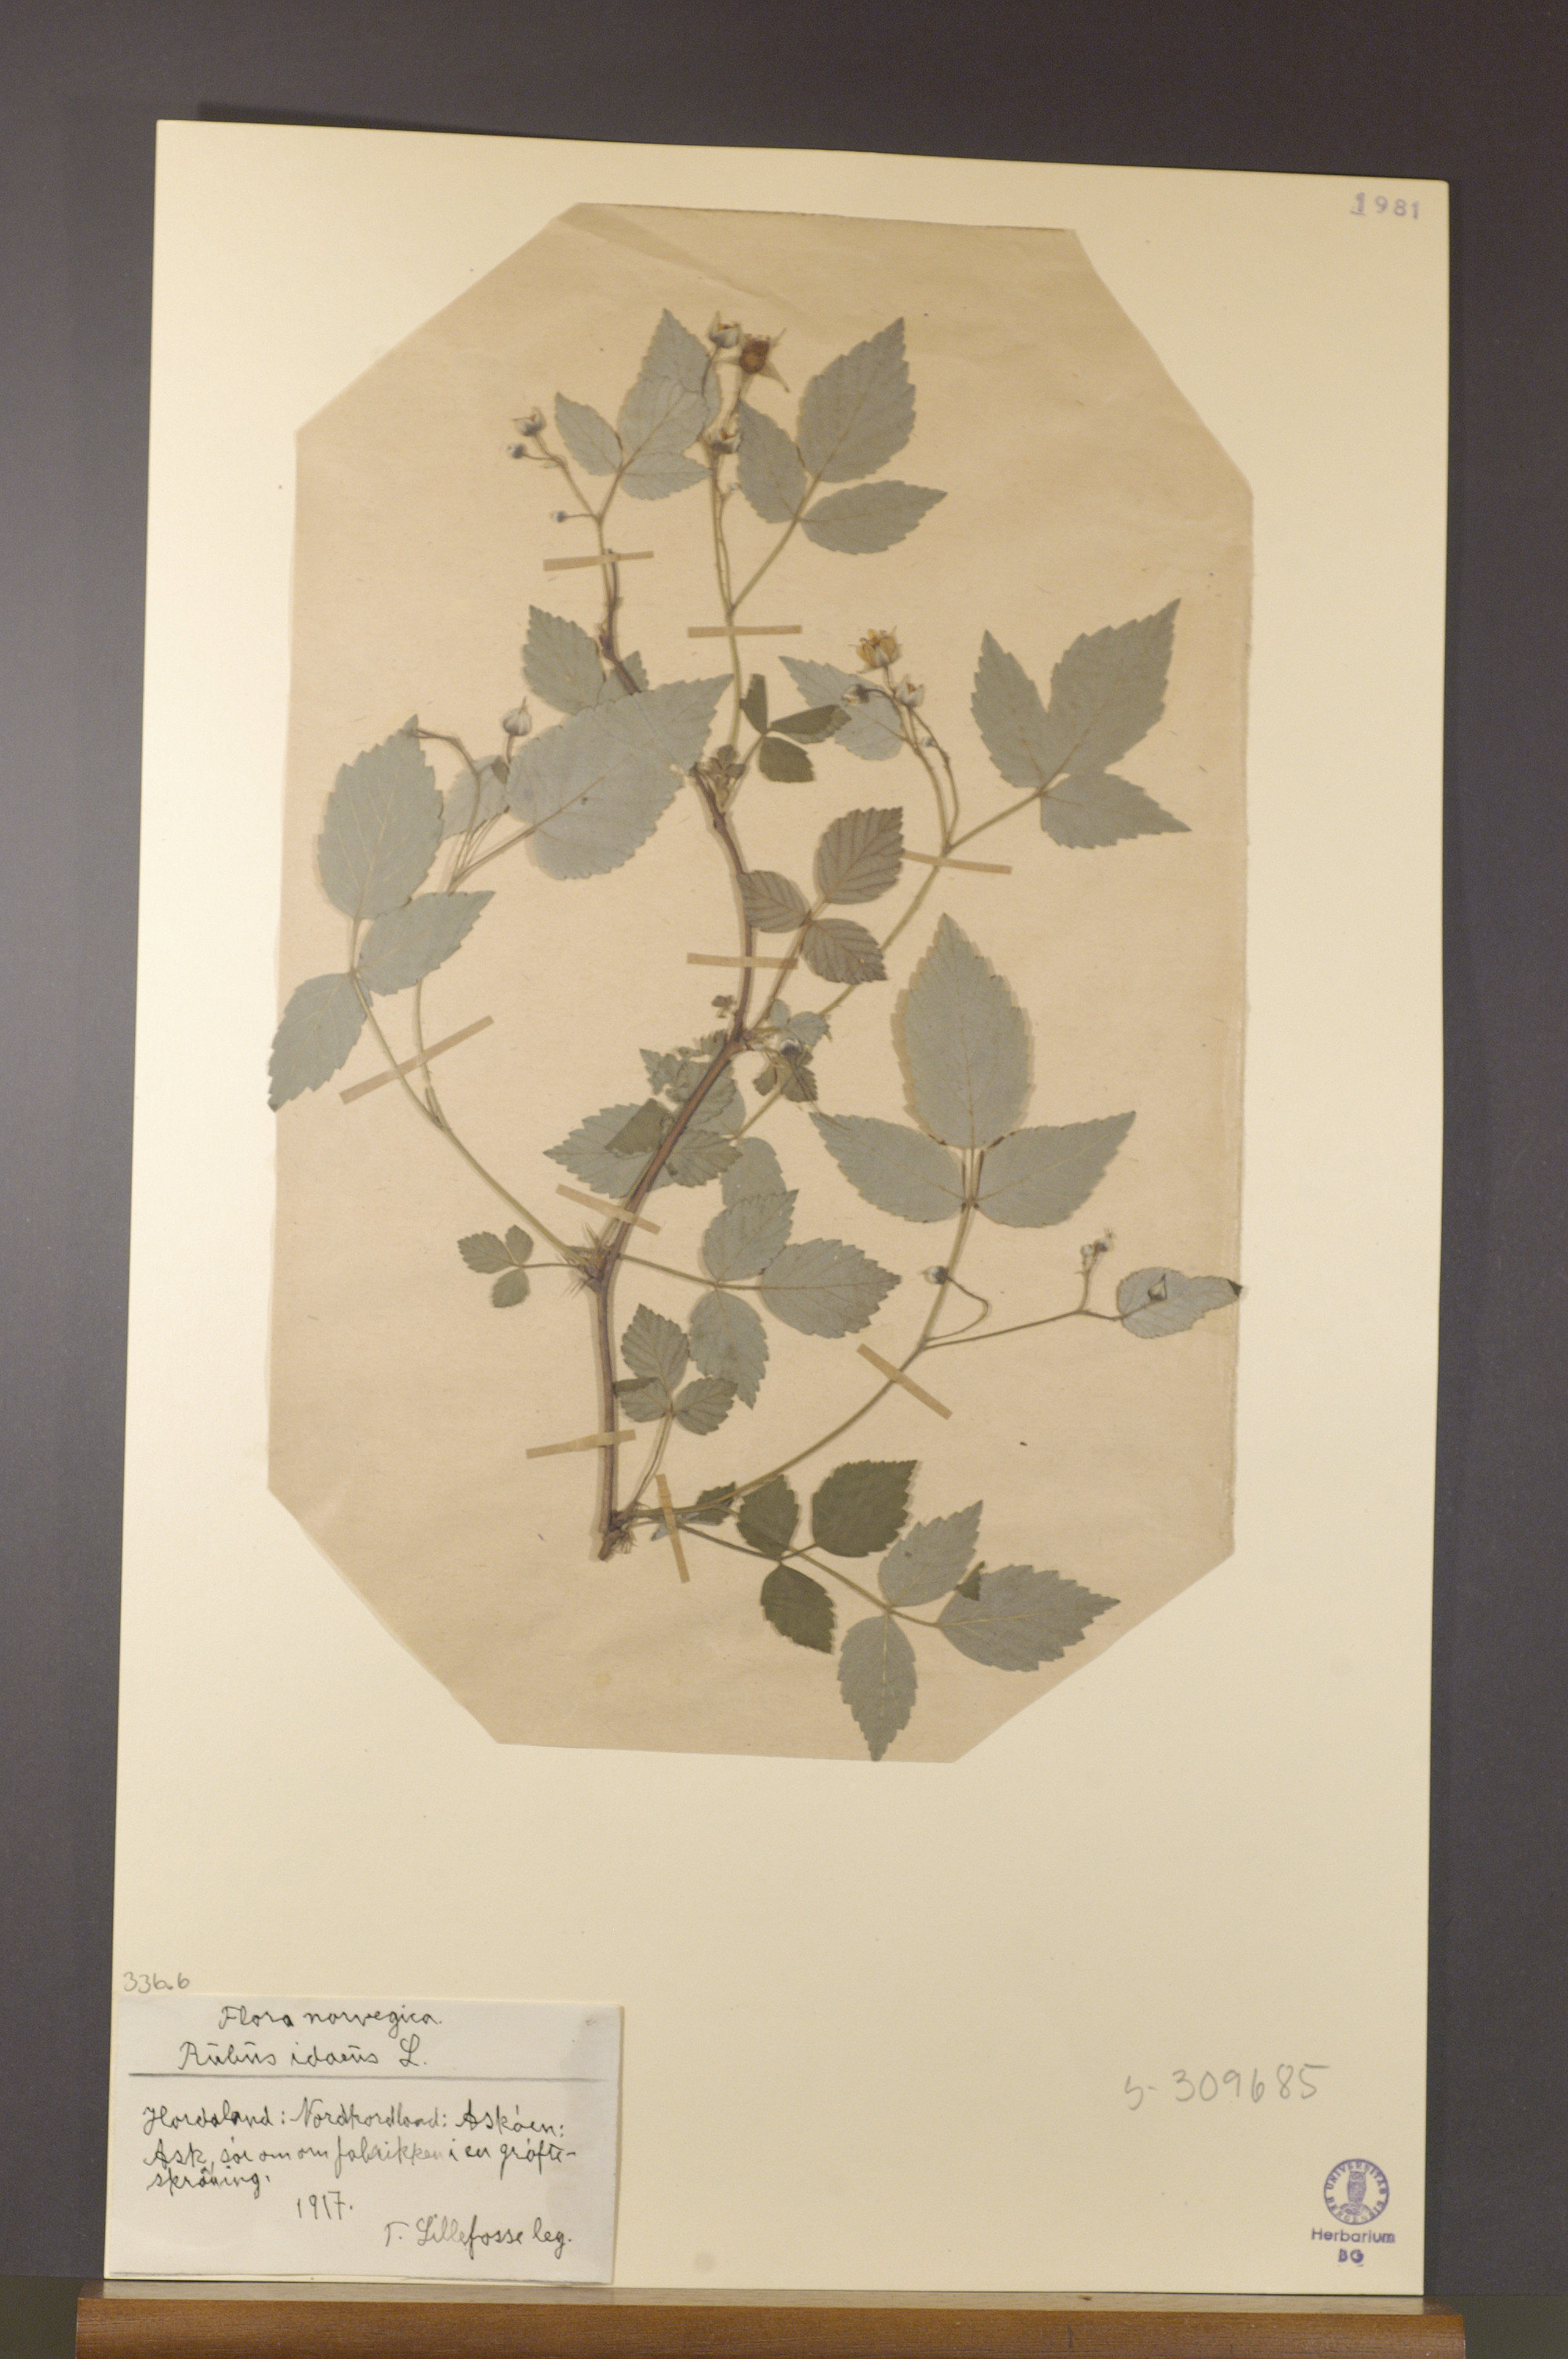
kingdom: Plantae
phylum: Tracheophyta
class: Magnoliopsida
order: Rosales
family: Rosaceae
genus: Rubus
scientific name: Rubus idaeus
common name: Raspberry
